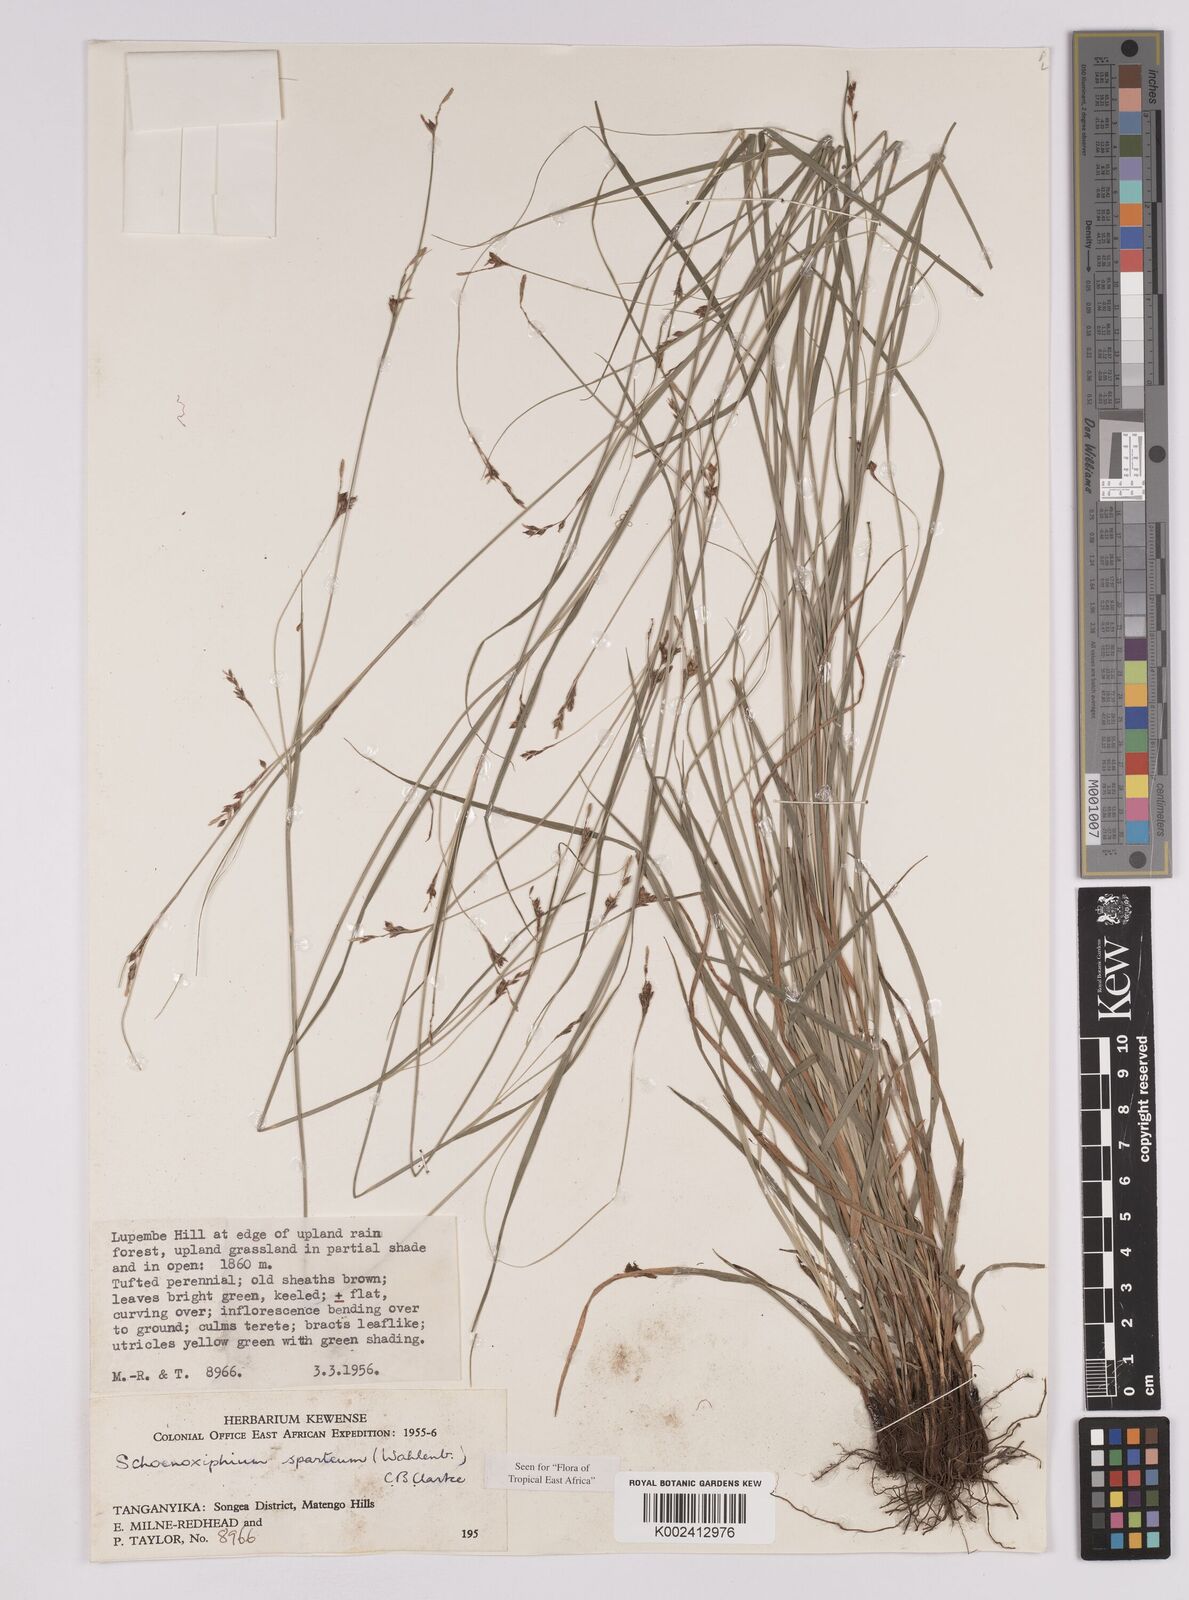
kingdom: Plantae
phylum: Tracheophyta
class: Liliopsida
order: Poales
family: Cyperaceae
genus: Carex
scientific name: Carex spartea
